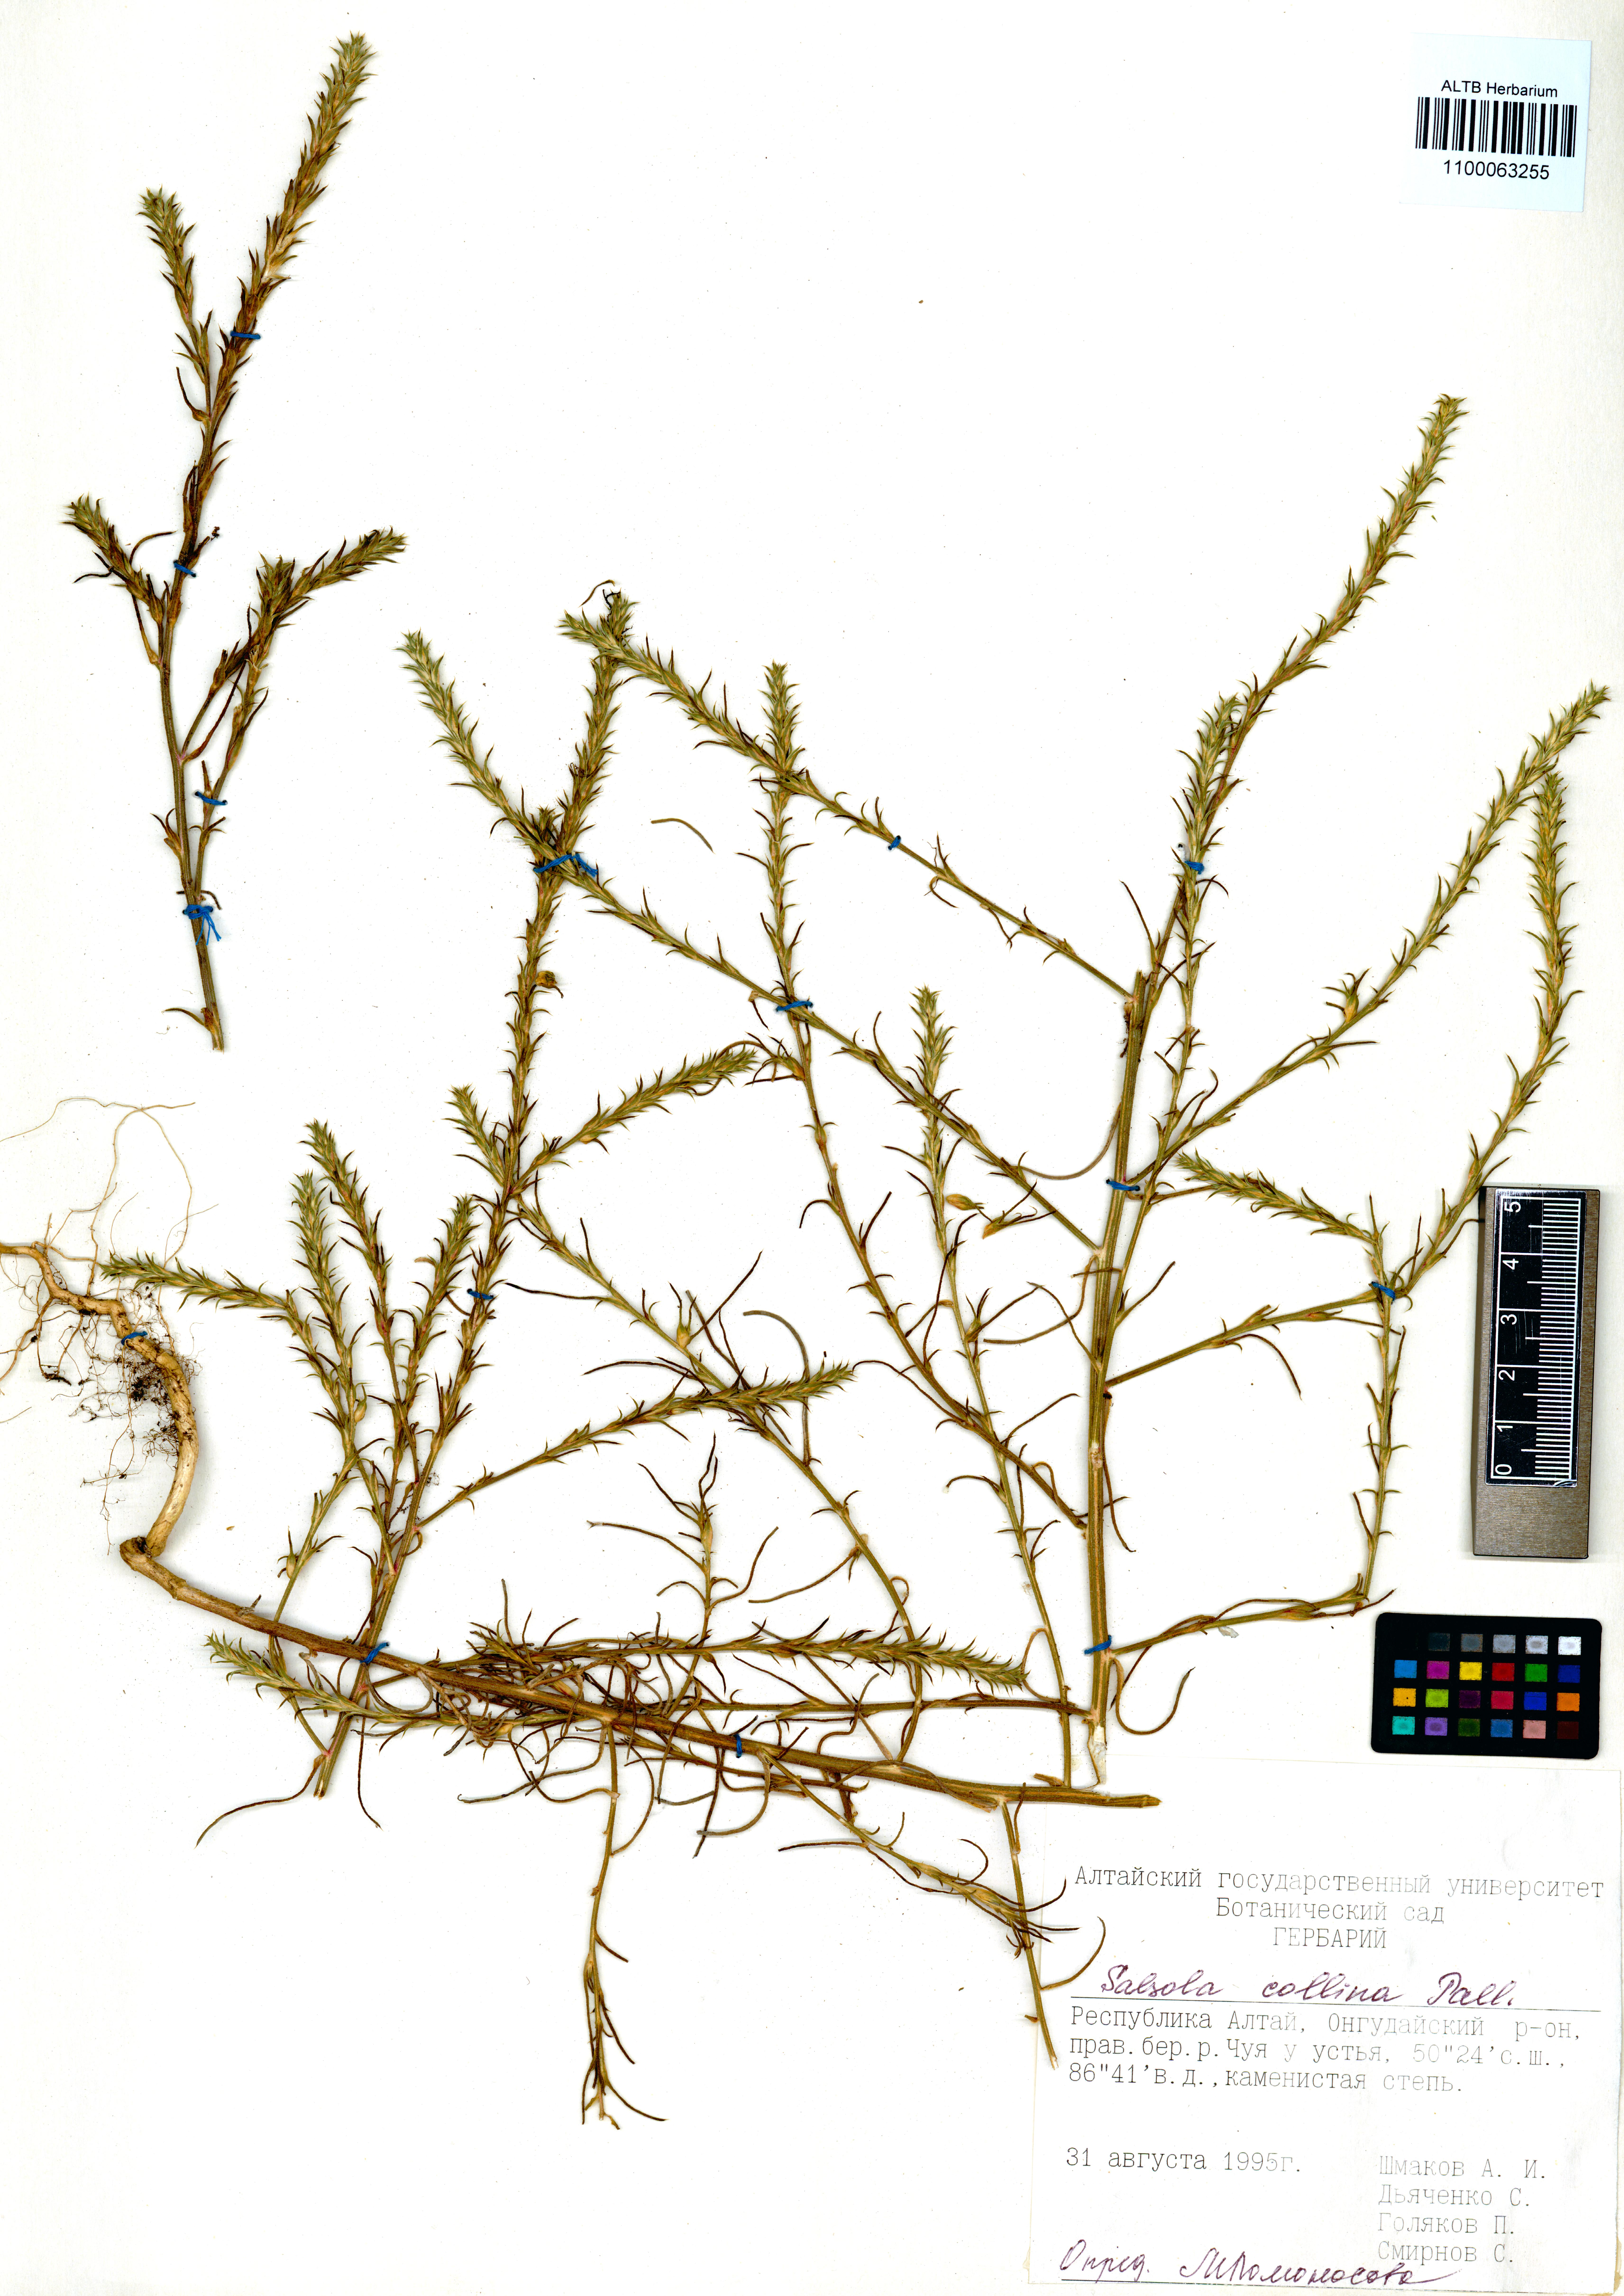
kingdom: Plantae
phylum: Tracheophyta
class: Magnoliopsida
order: Caryophyllales
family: Amaranthaceae
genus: Salsola
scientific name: Salsola collina
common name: Tumbleweed
